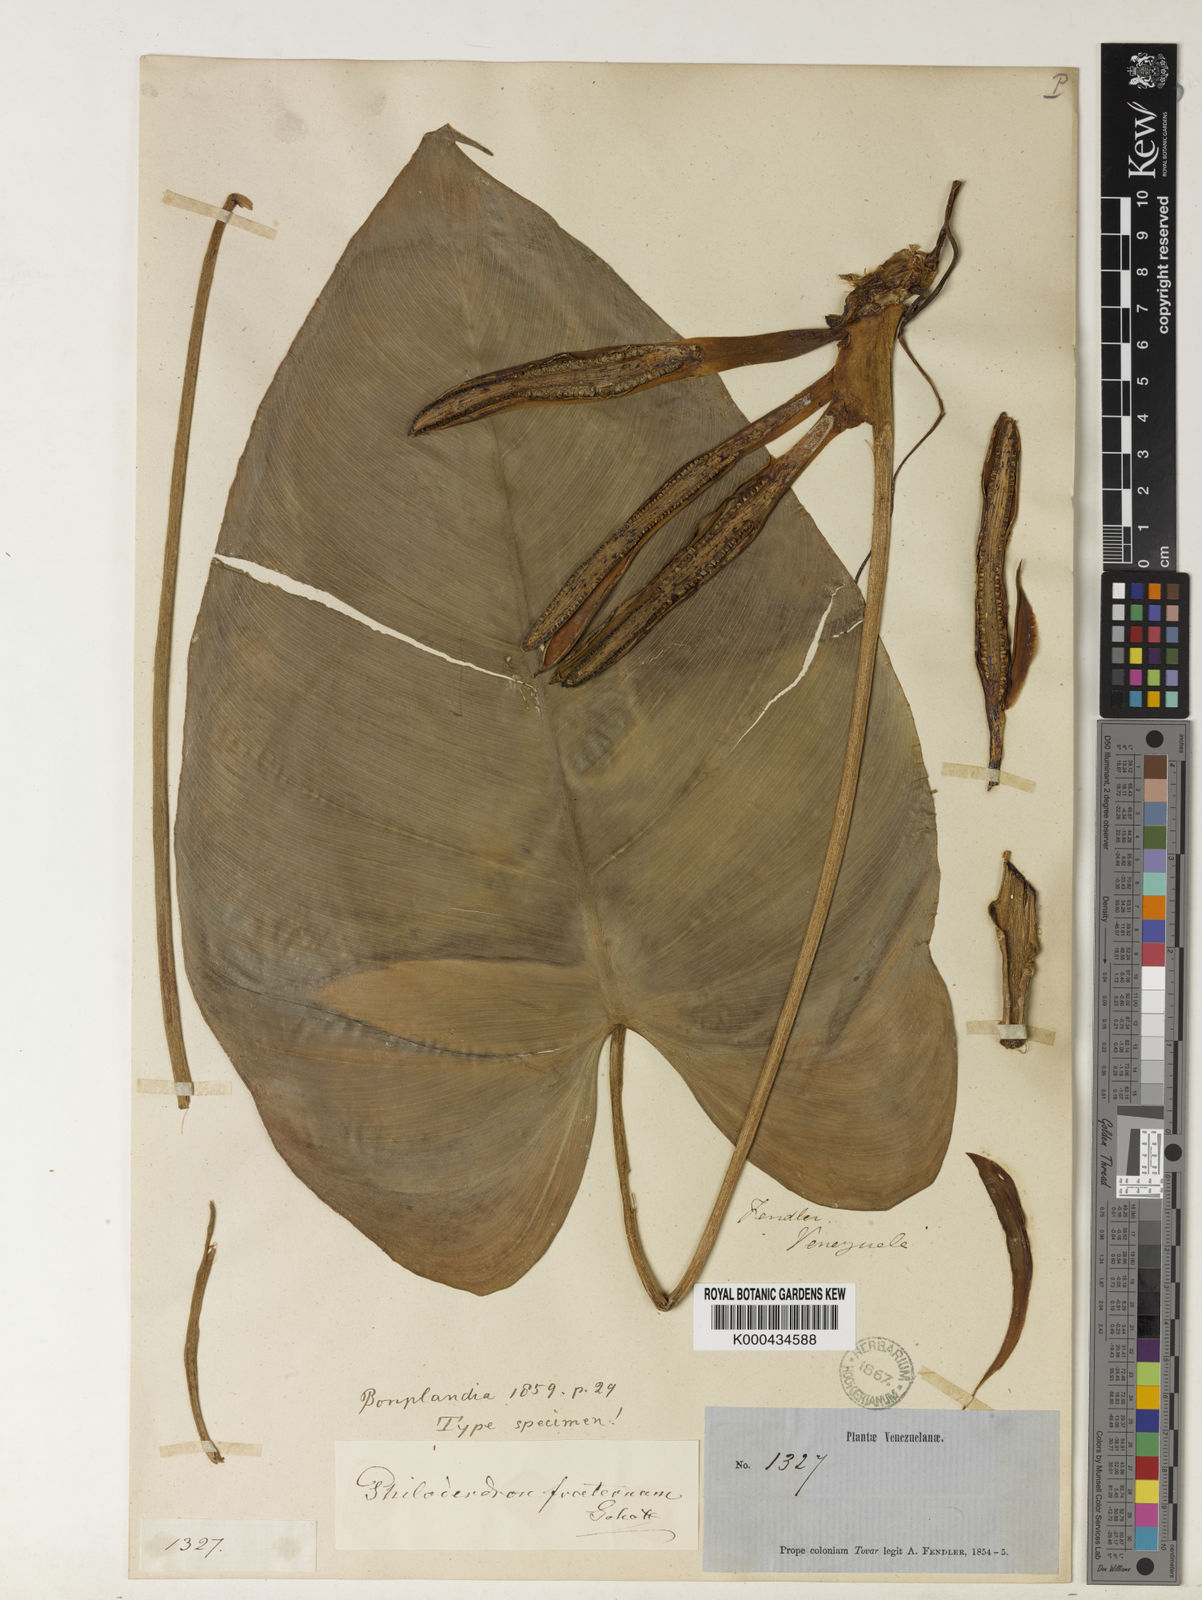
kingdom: Plantae
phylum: Tracheophyta
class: Liliopsida
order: Alismatales
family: Araceae
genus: Philodendron
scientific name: Philodendron fraternum
